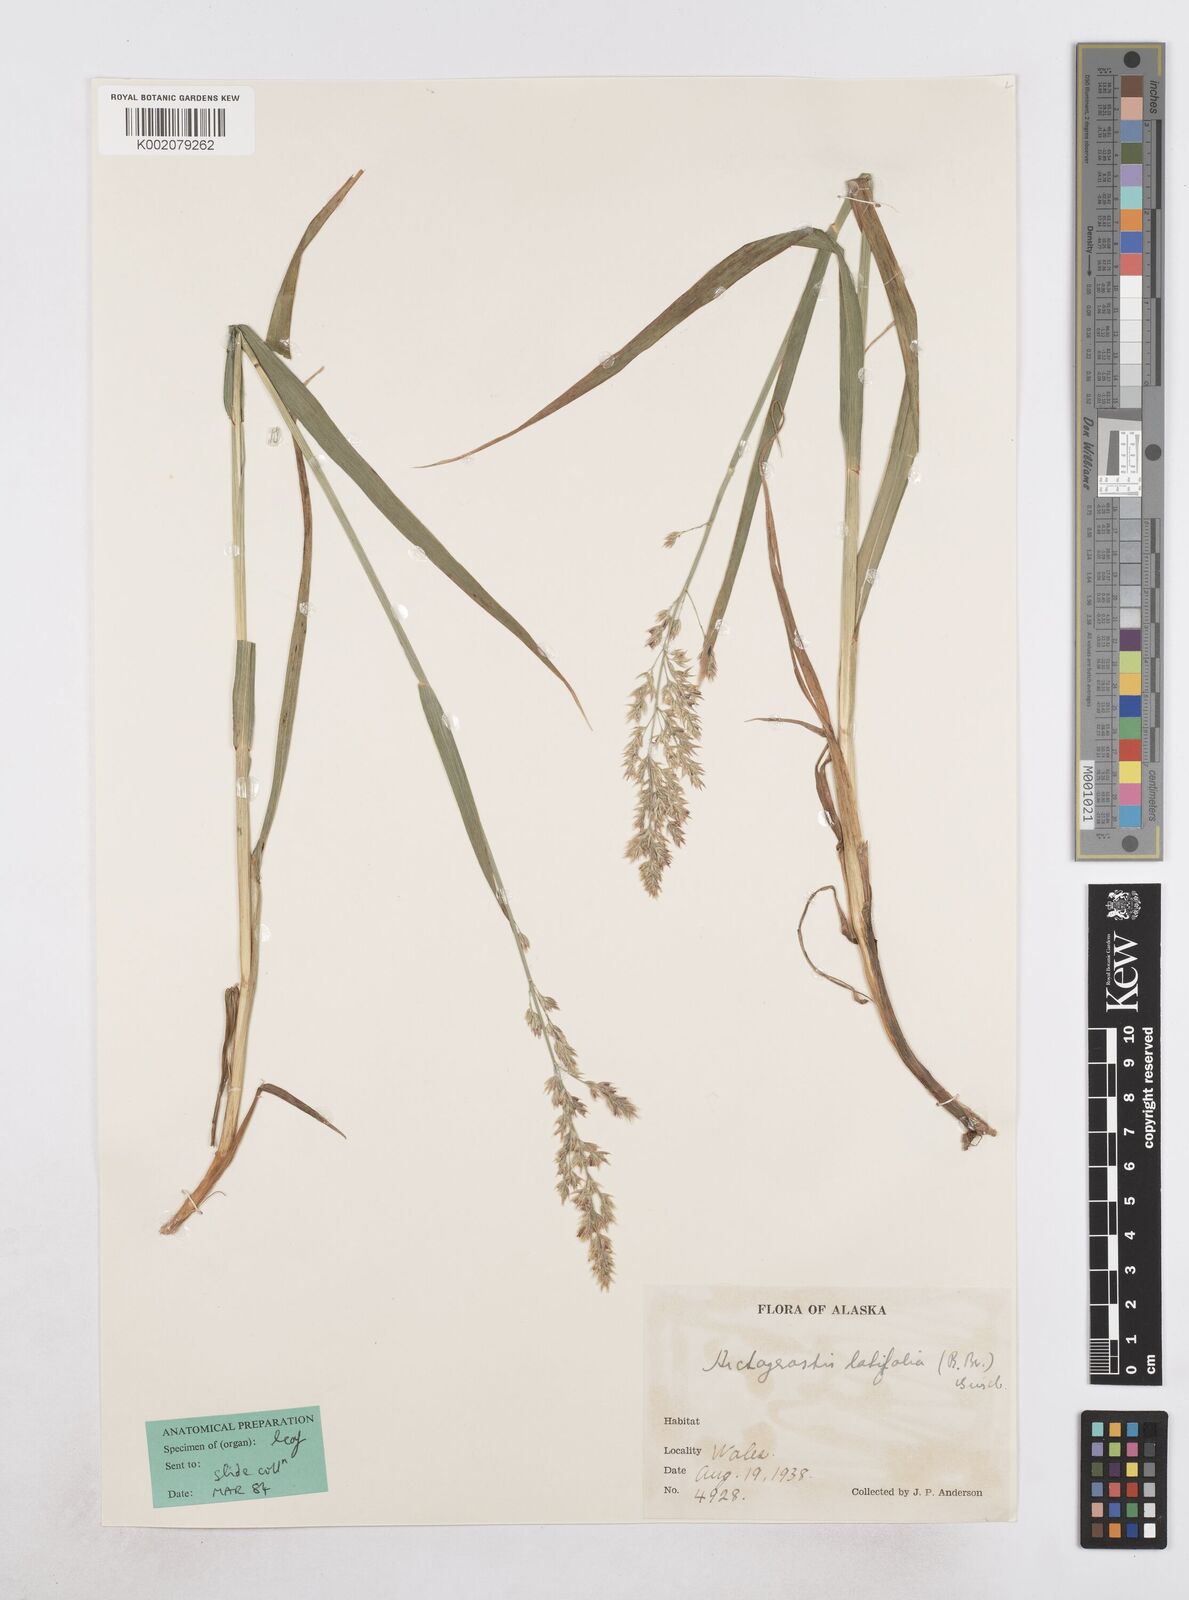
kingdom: Plantae
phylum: Tracheophyta
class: Liliopsida
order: Poales
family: Poaceae
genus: Arctagrostis
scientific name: Arctagrostis latifolia
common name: Arctic grass
